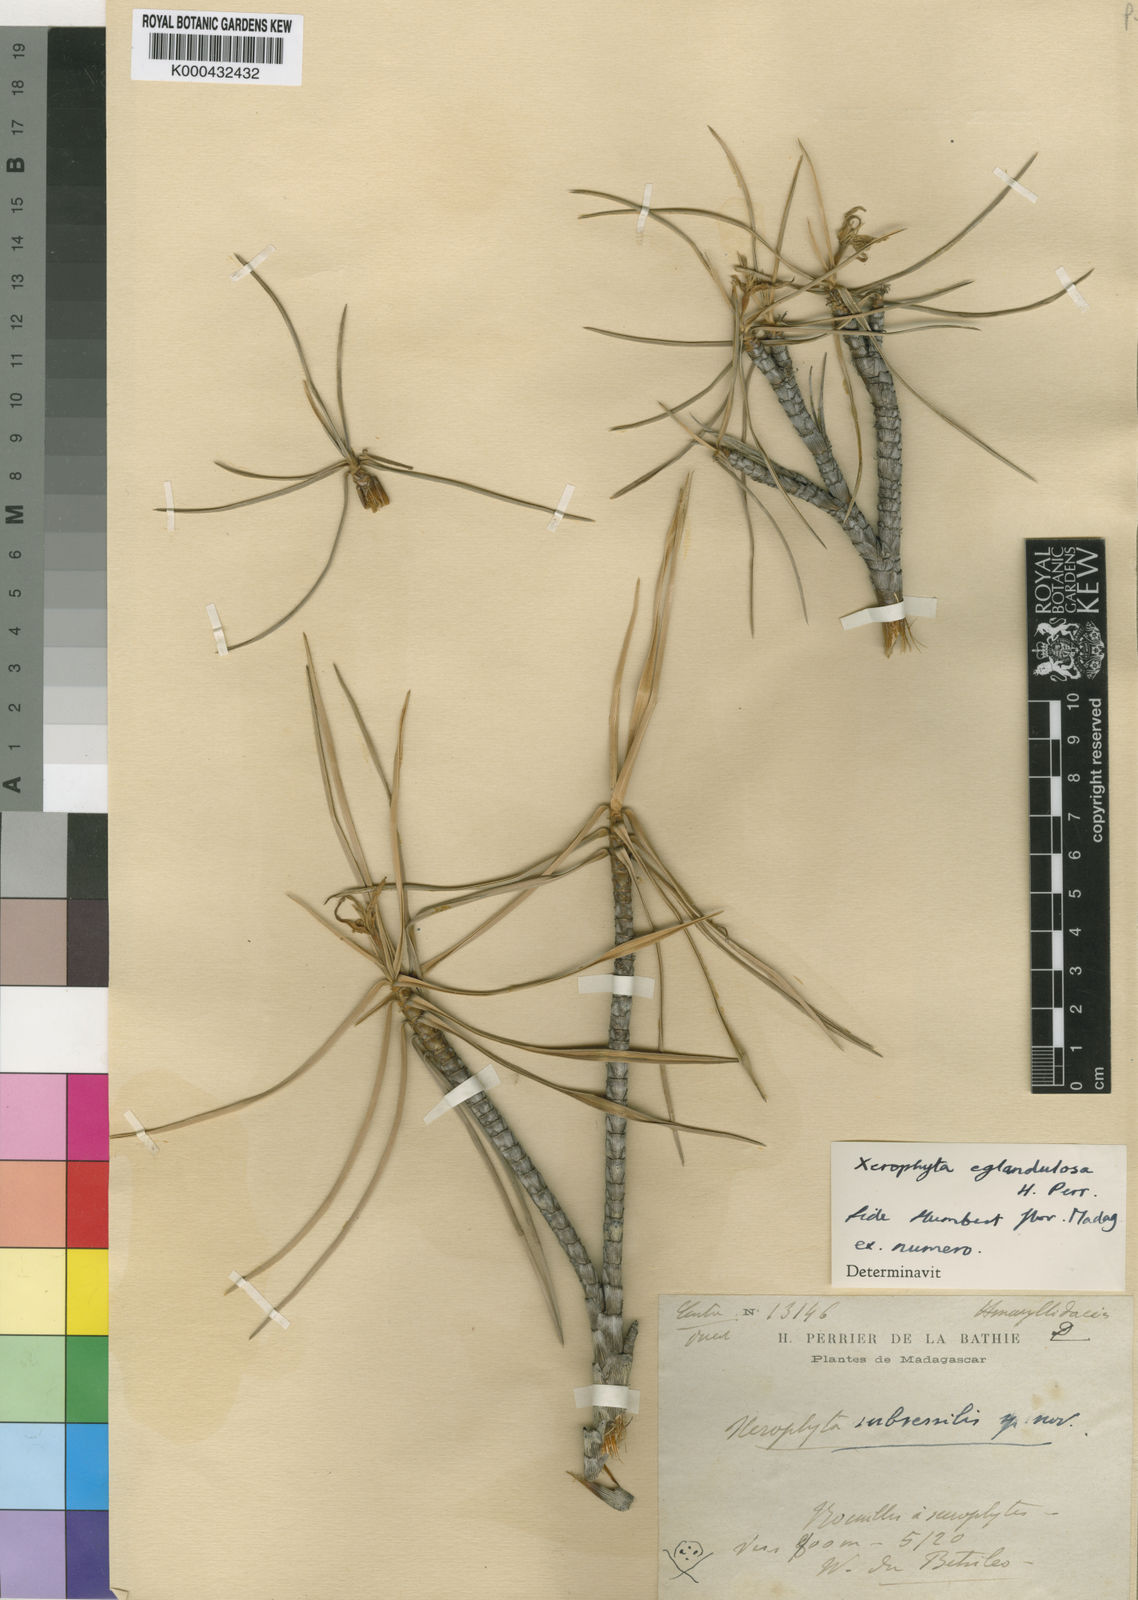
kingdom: Plantae
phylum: Tracheophyta
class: Liliopsida
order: Pandanales
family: Velloziaceae
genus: Xerophyta
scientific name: Xerophyta eglandulosa
